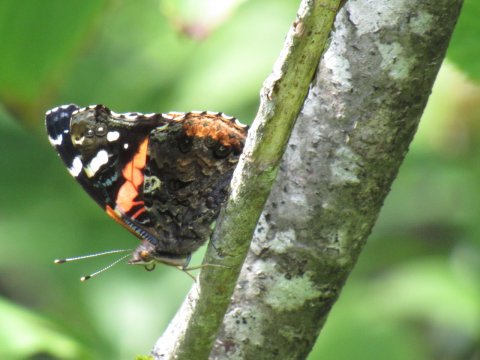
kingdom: Animalia
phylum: Arthropoda
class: Insecta
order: Lepidoptera
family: Nymphalidae
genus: Vanessa
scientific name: Vanessa atalanta
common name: Red Admiral
